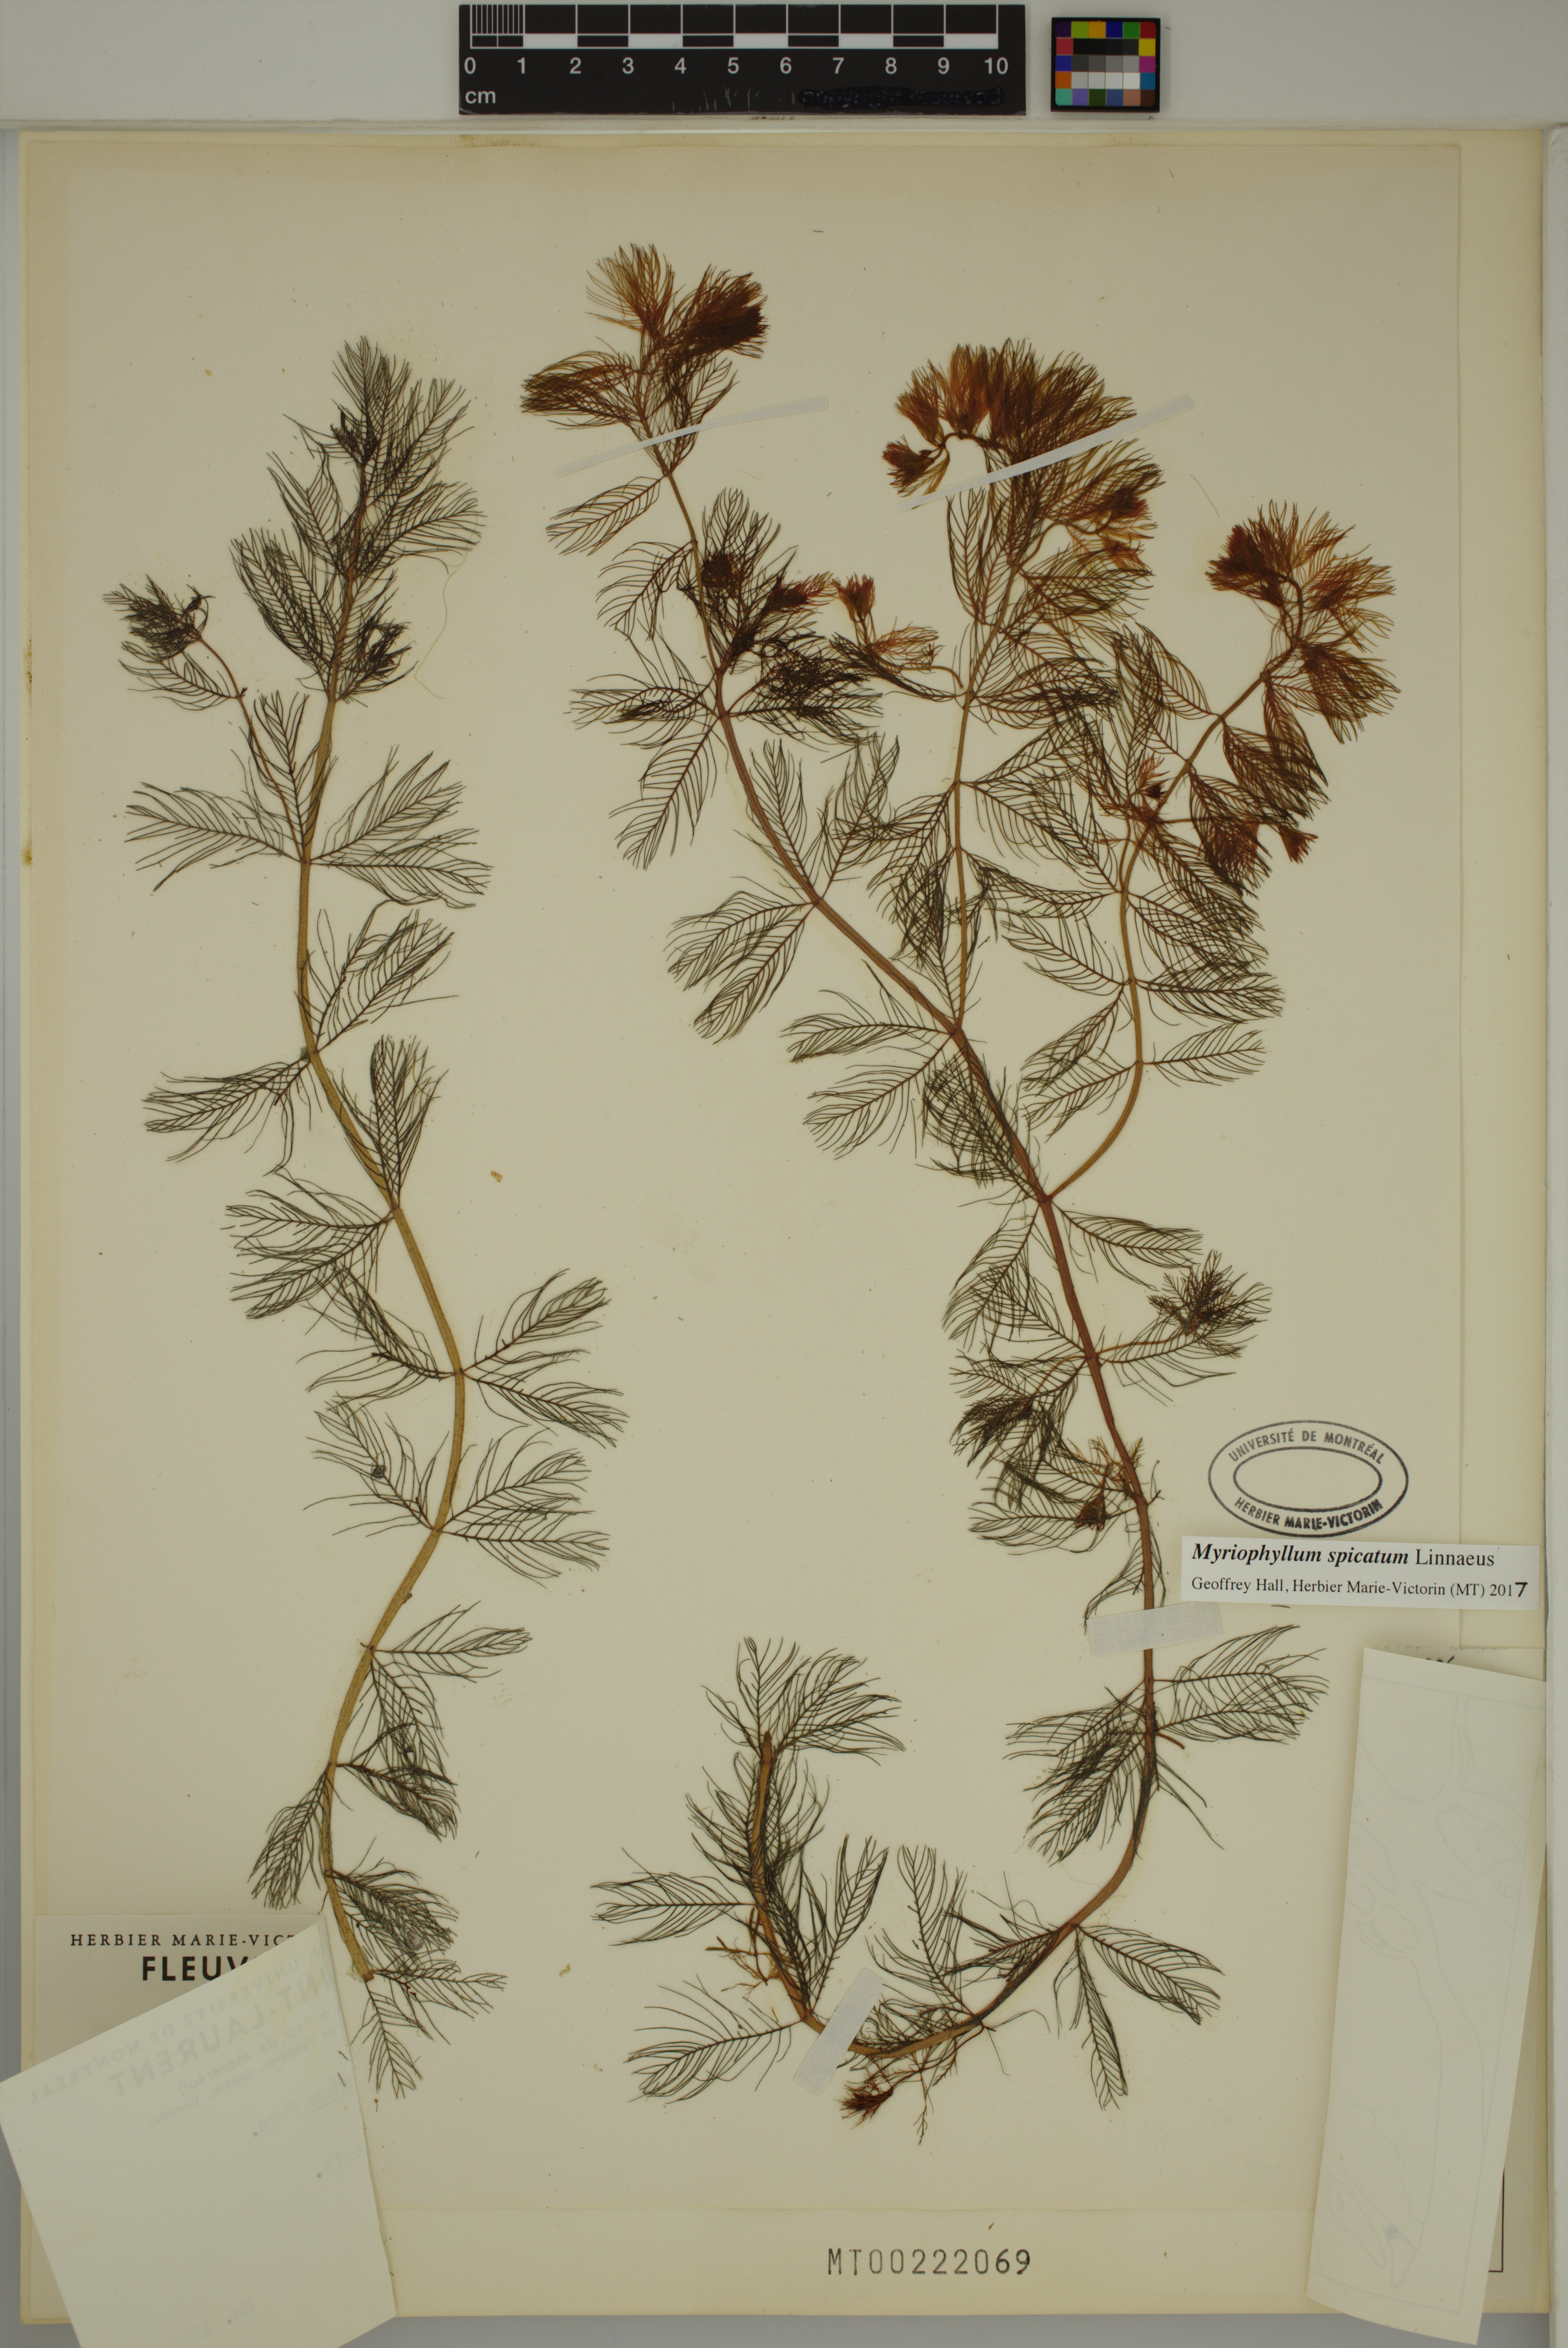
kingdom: Plantae
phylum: Tracheophyta
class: Magnoliopsida
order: Saxifragales
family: Haloragaceae
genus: Myriophyllum
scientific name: Myriophyllum spicatum
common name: Spiked water-milfoil
